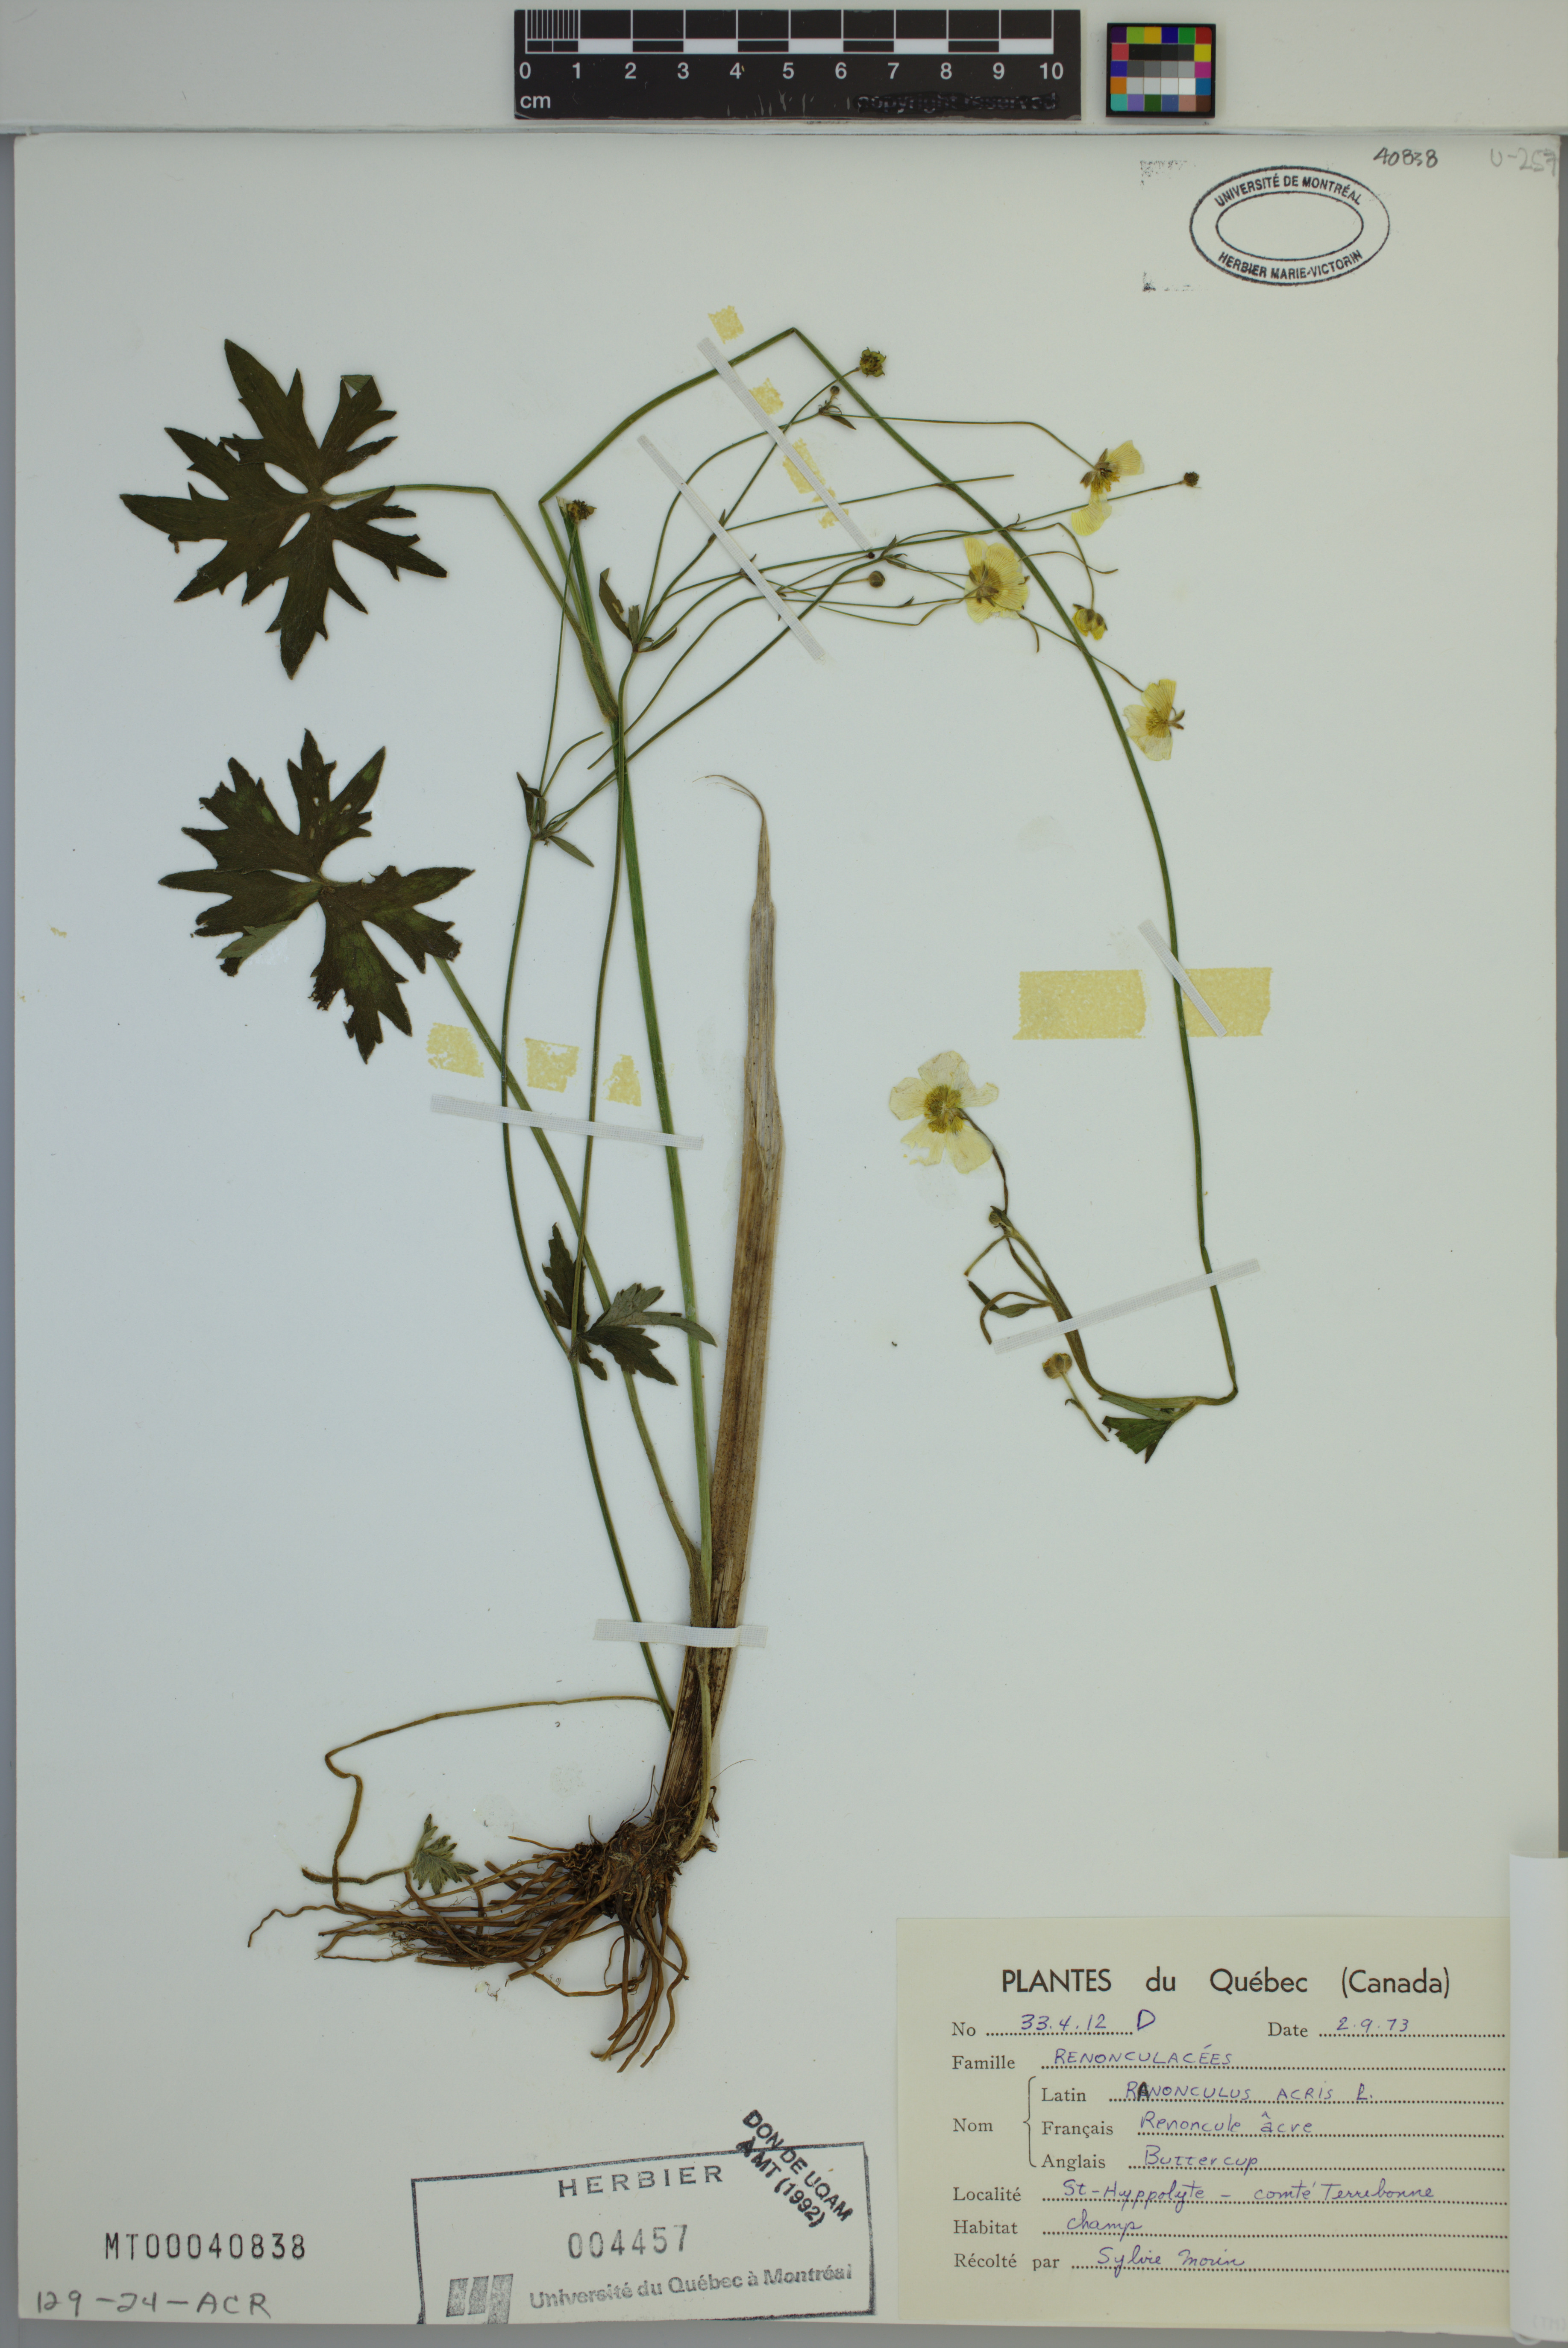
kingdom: Plantae
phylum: Tracheophyta
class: Magnoliopsida
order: Ranunculales
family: Ranunculaceae
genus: Ranunculus
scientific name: Ranunculus acris
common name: Meadow buttercup
